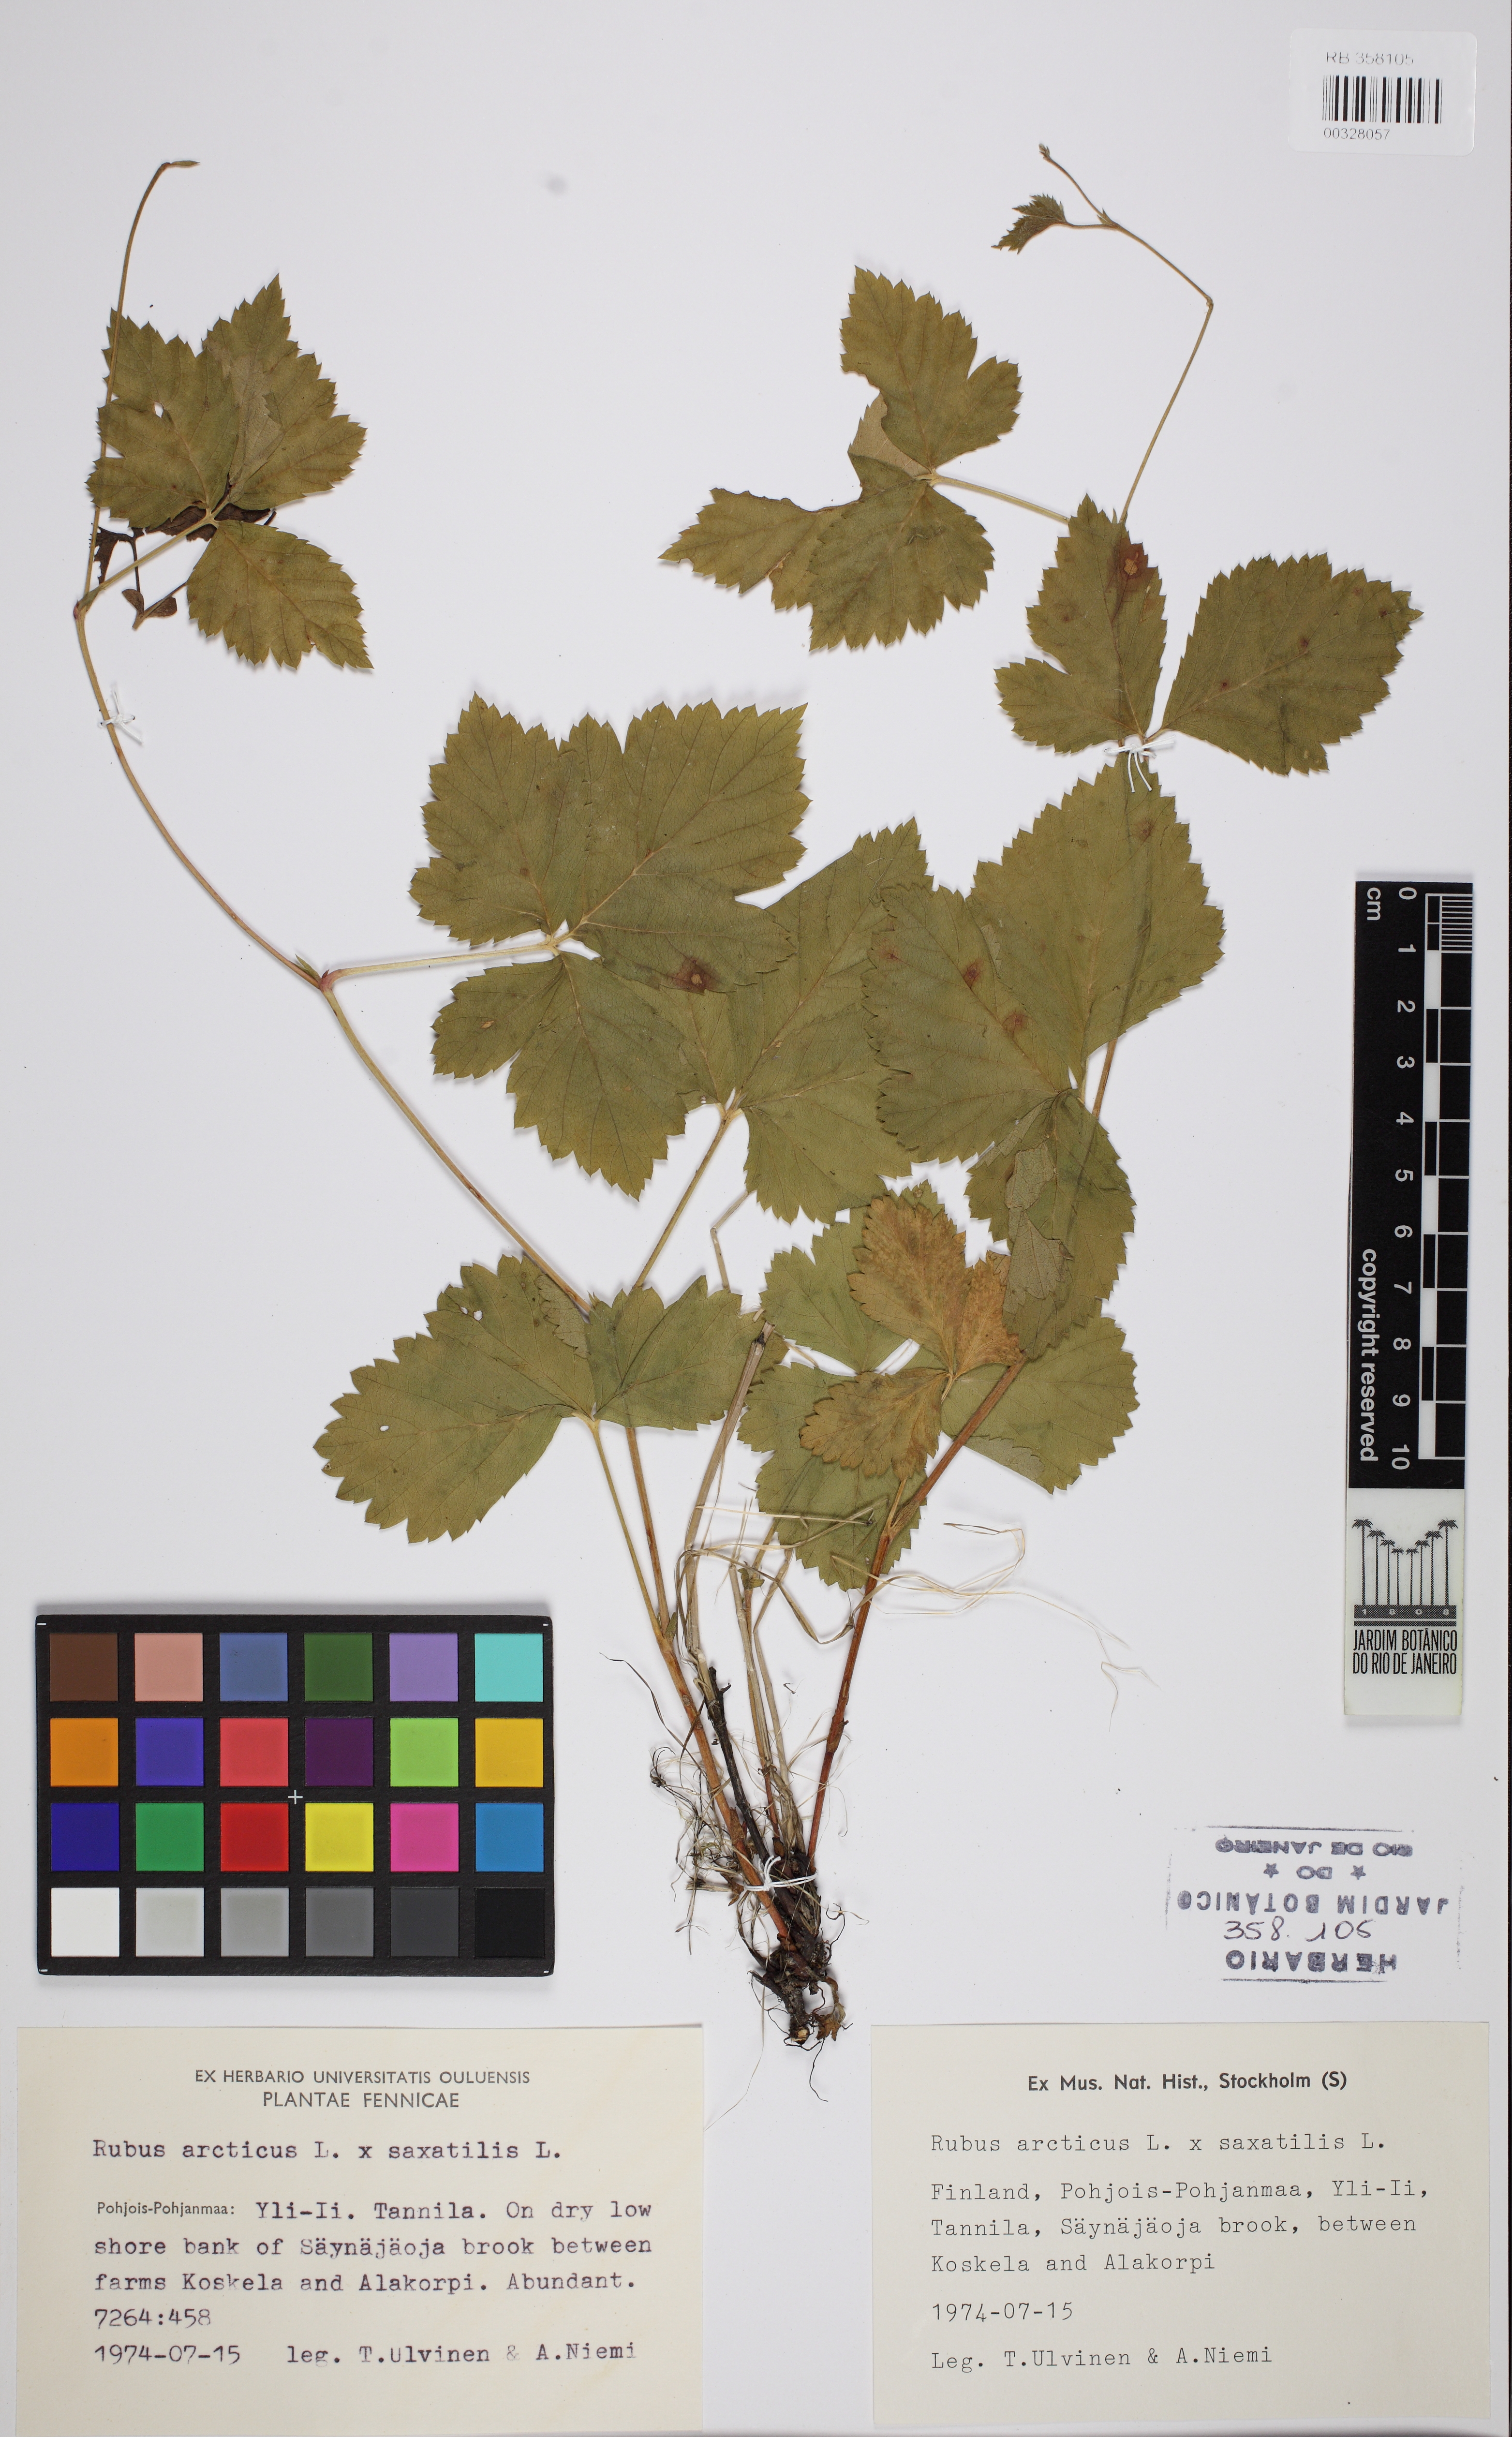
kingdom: Plantae
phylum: Tracheophyta
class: Magnoliopsida
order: Rosales
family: Rosaceae
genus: Rubus
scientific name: Rubus arcticus
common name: Arctic bramble
